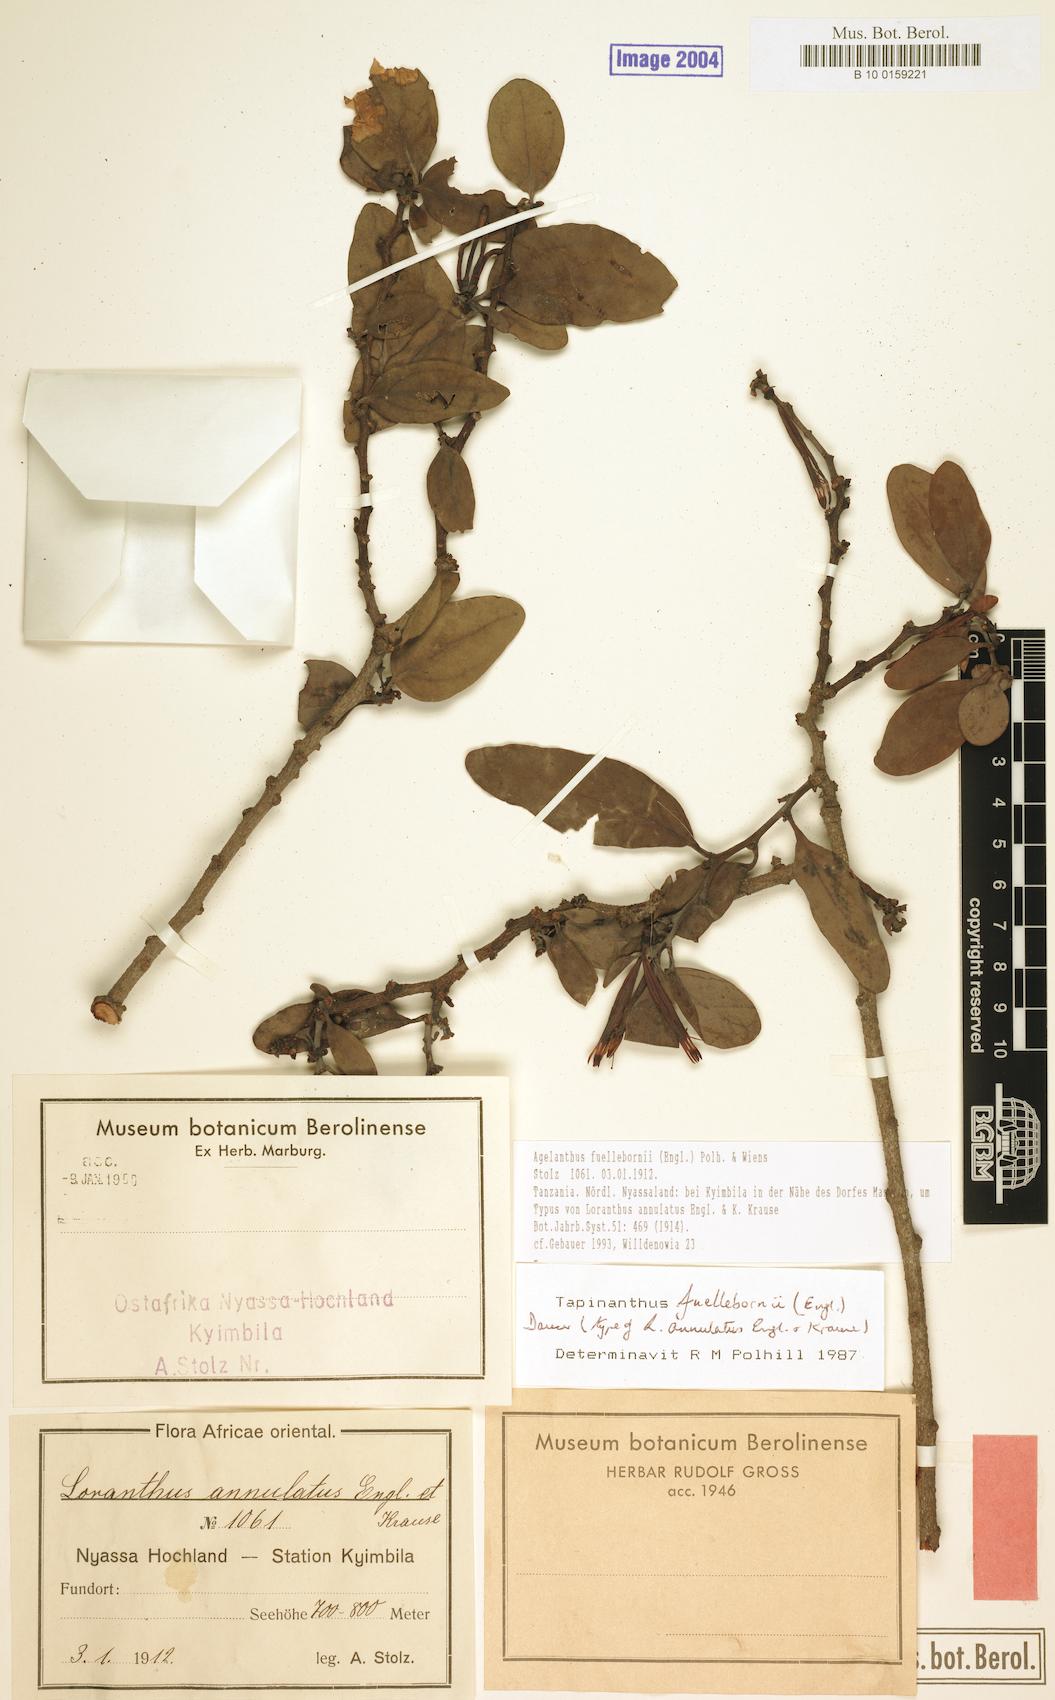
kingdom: Plantae
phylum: Tracheophyta
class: Magnoliopsida
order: Santalales
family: Loranthaceae
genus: Agelanthus
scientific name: Agelanthus fuellebornii
